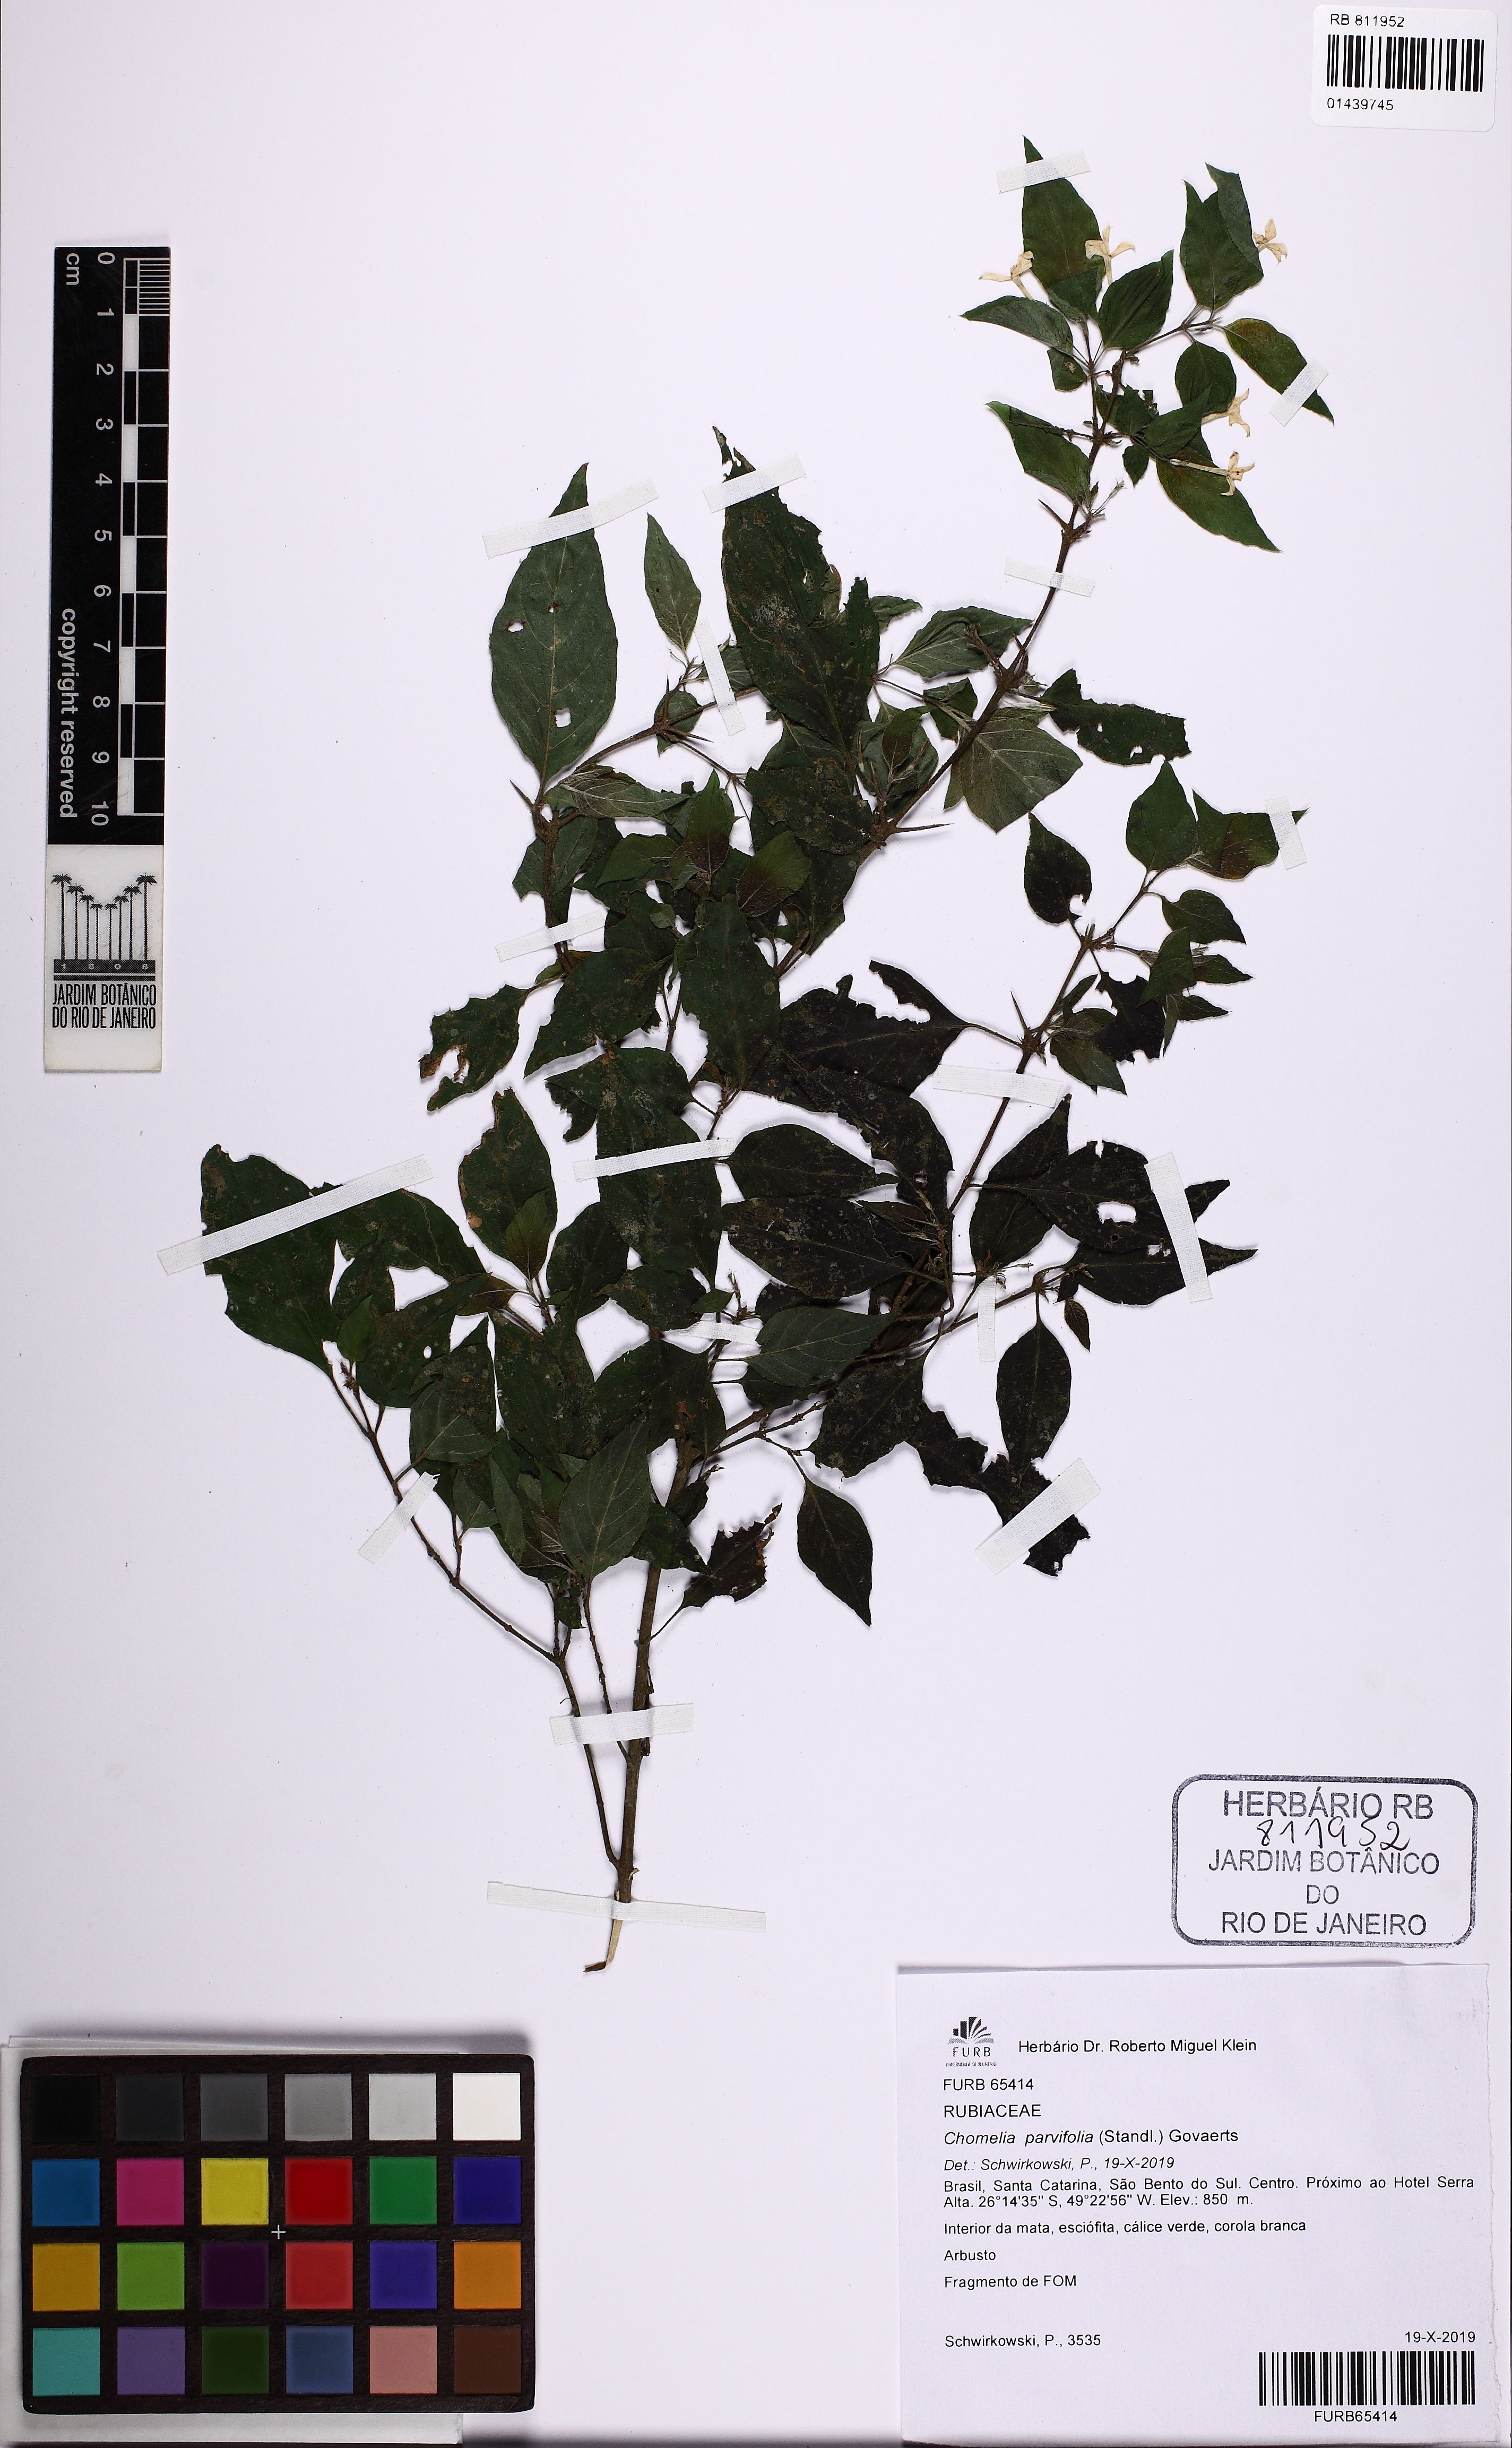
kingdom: Plantae
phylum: Tracheophyta
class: Magnoliopsida
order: Gentianales
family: Rubiaceae
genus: Chomelia
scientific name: Chomelia parvifolia
